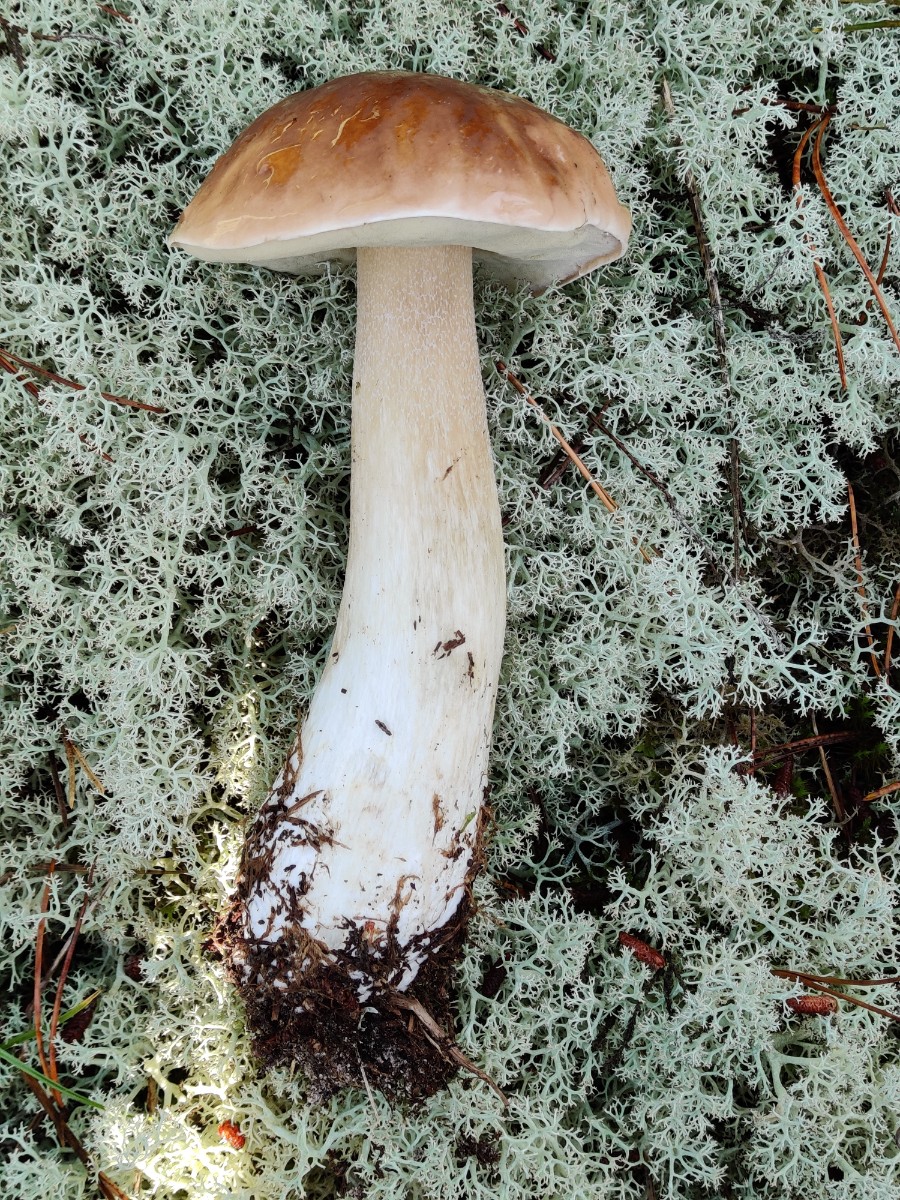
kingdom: Fungi
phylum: Basidiomycota
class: Agaricomycetes
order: Boletales
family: Boletaceae
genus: Boletus
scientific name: Boletus edulis
